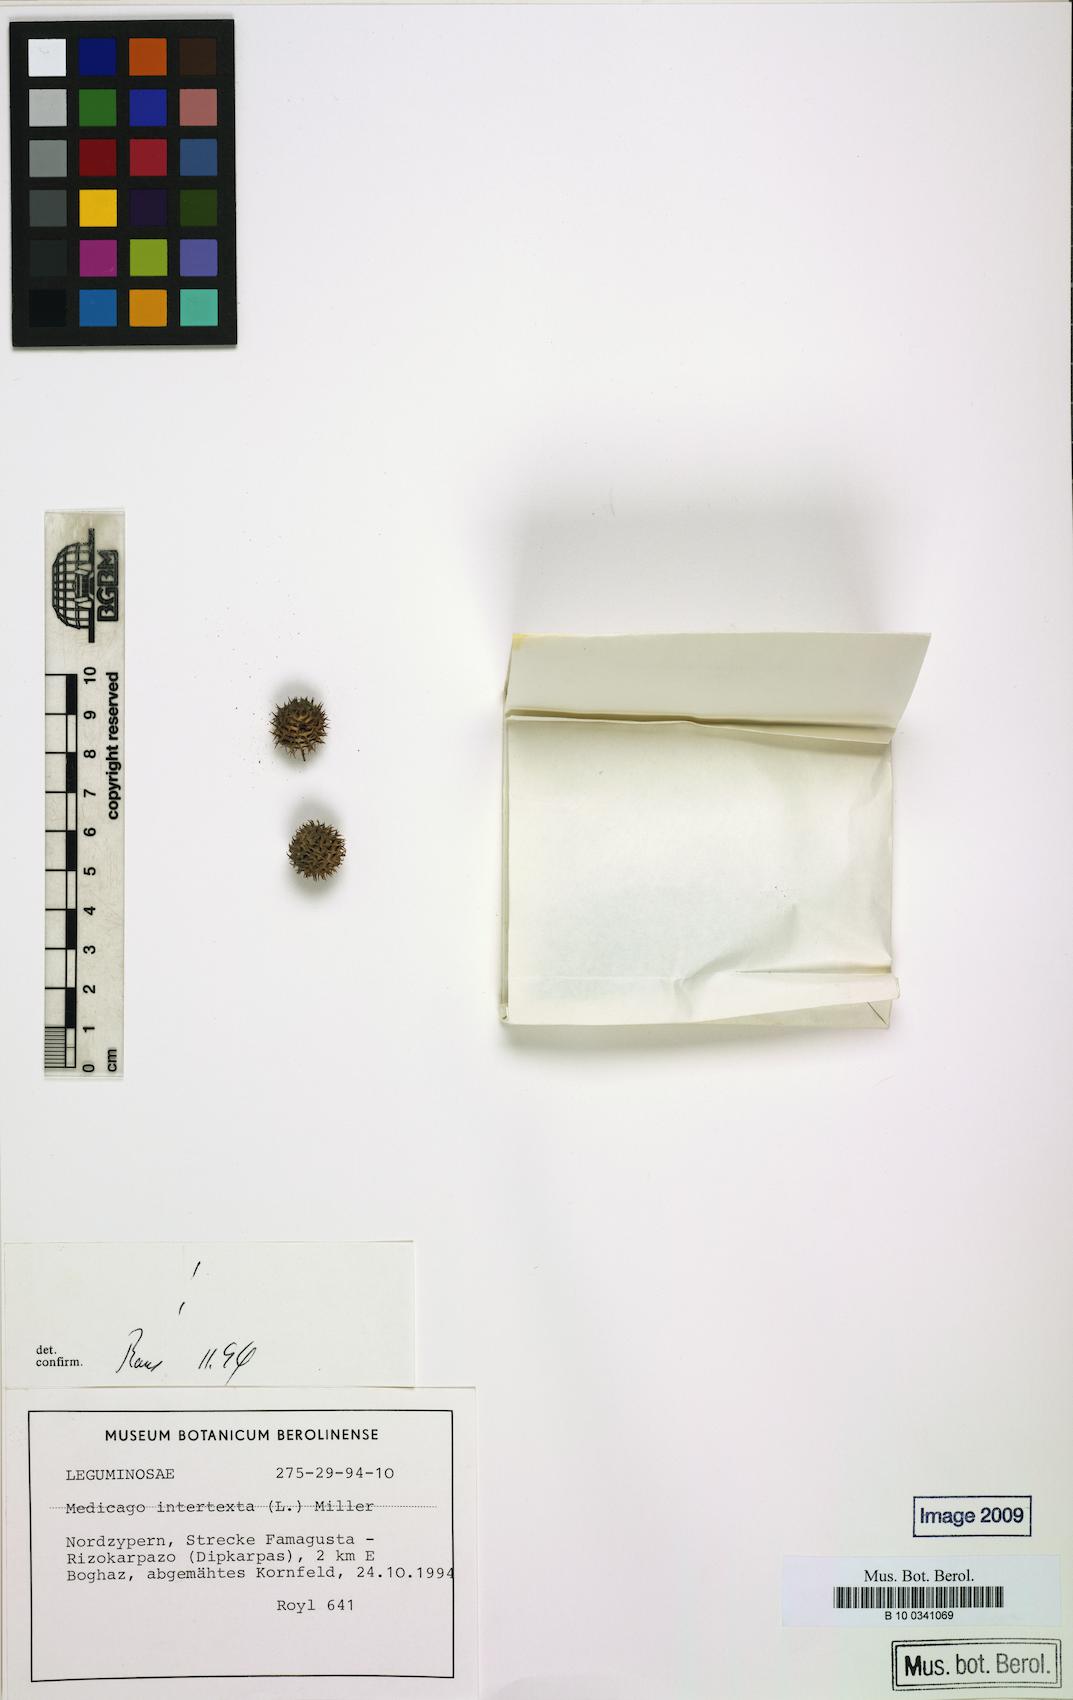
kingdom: Plantae
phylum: Tracheophyta
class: Magnoliopsida
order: Fabales
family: Fabaceae
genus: Medicago
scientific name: Medicago intertexta
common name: Hedgehog medick
